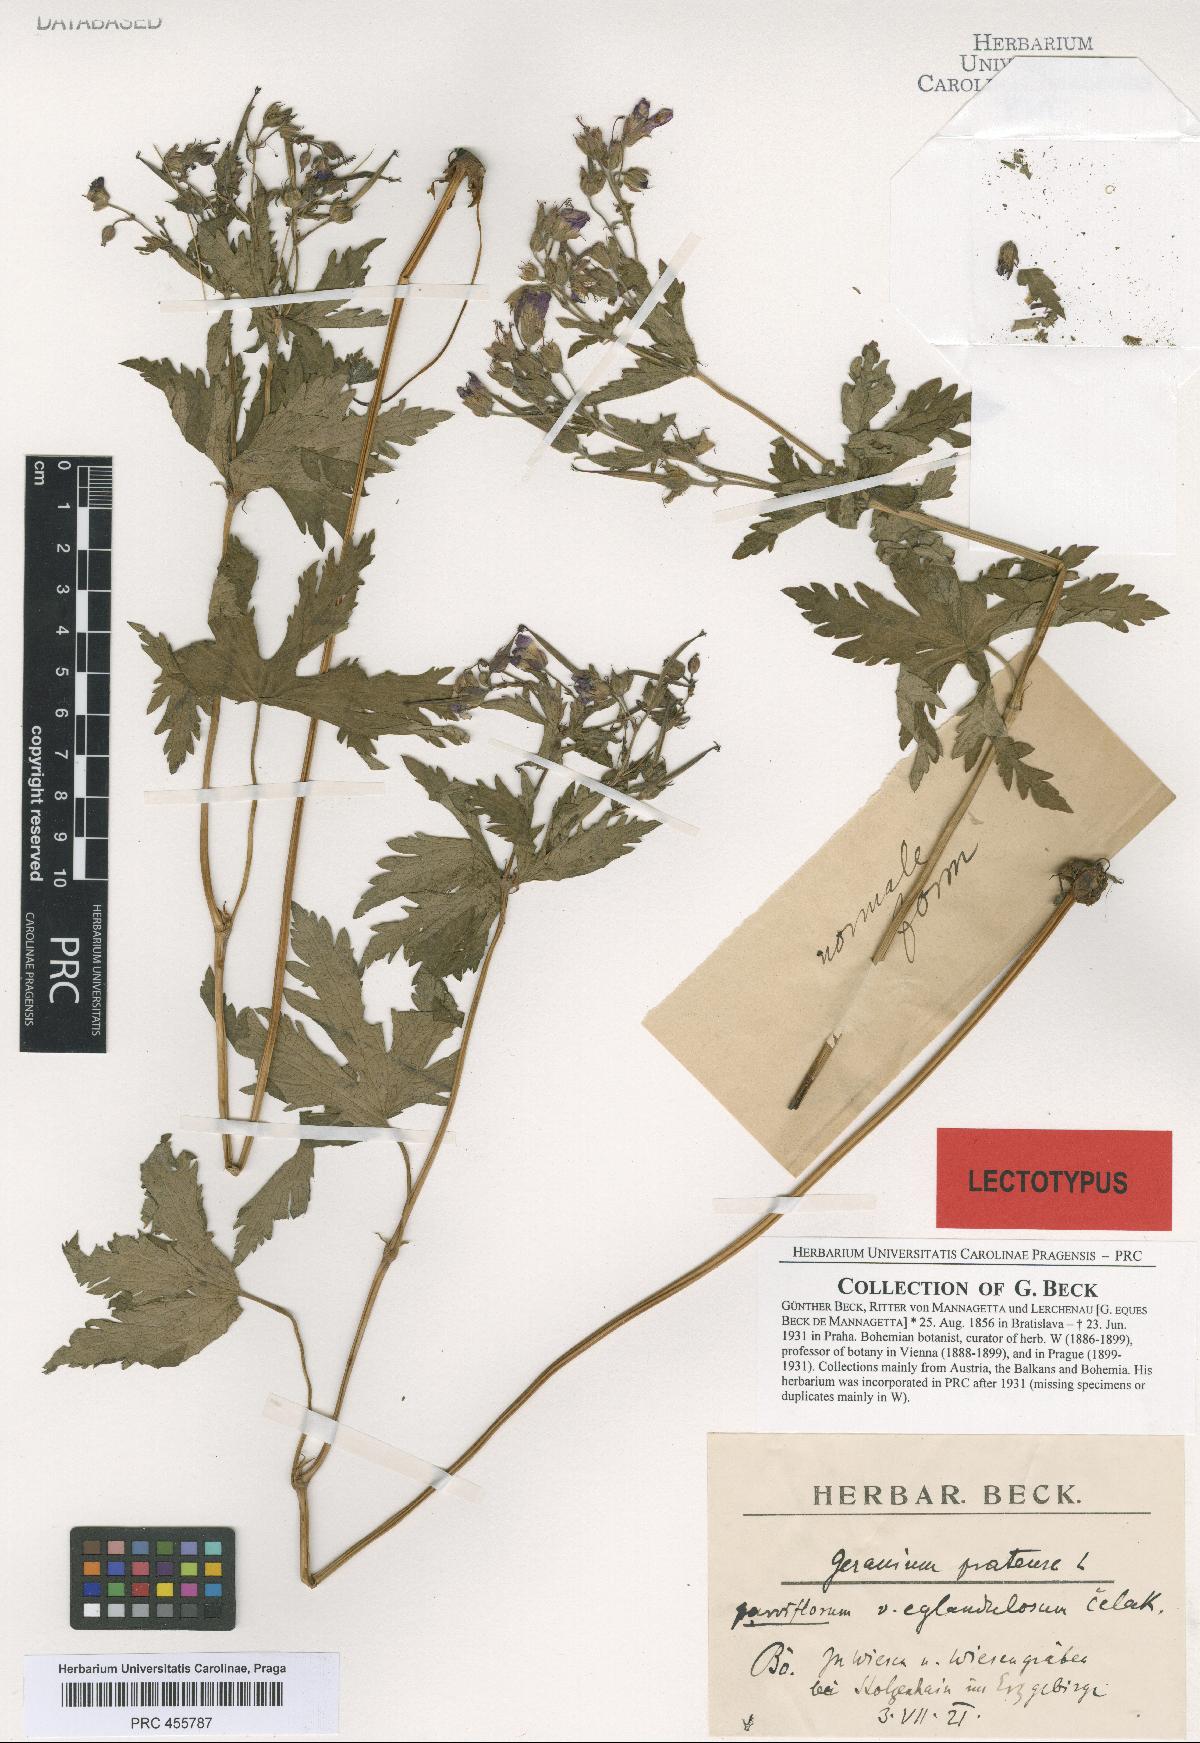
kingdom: Plantae
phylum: Tracheophyta
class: Magnoliopsida
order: Geraniales
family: Geraniaceae
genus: Geranium
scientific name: Geranium pratense
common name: Meadow crane's-bill
